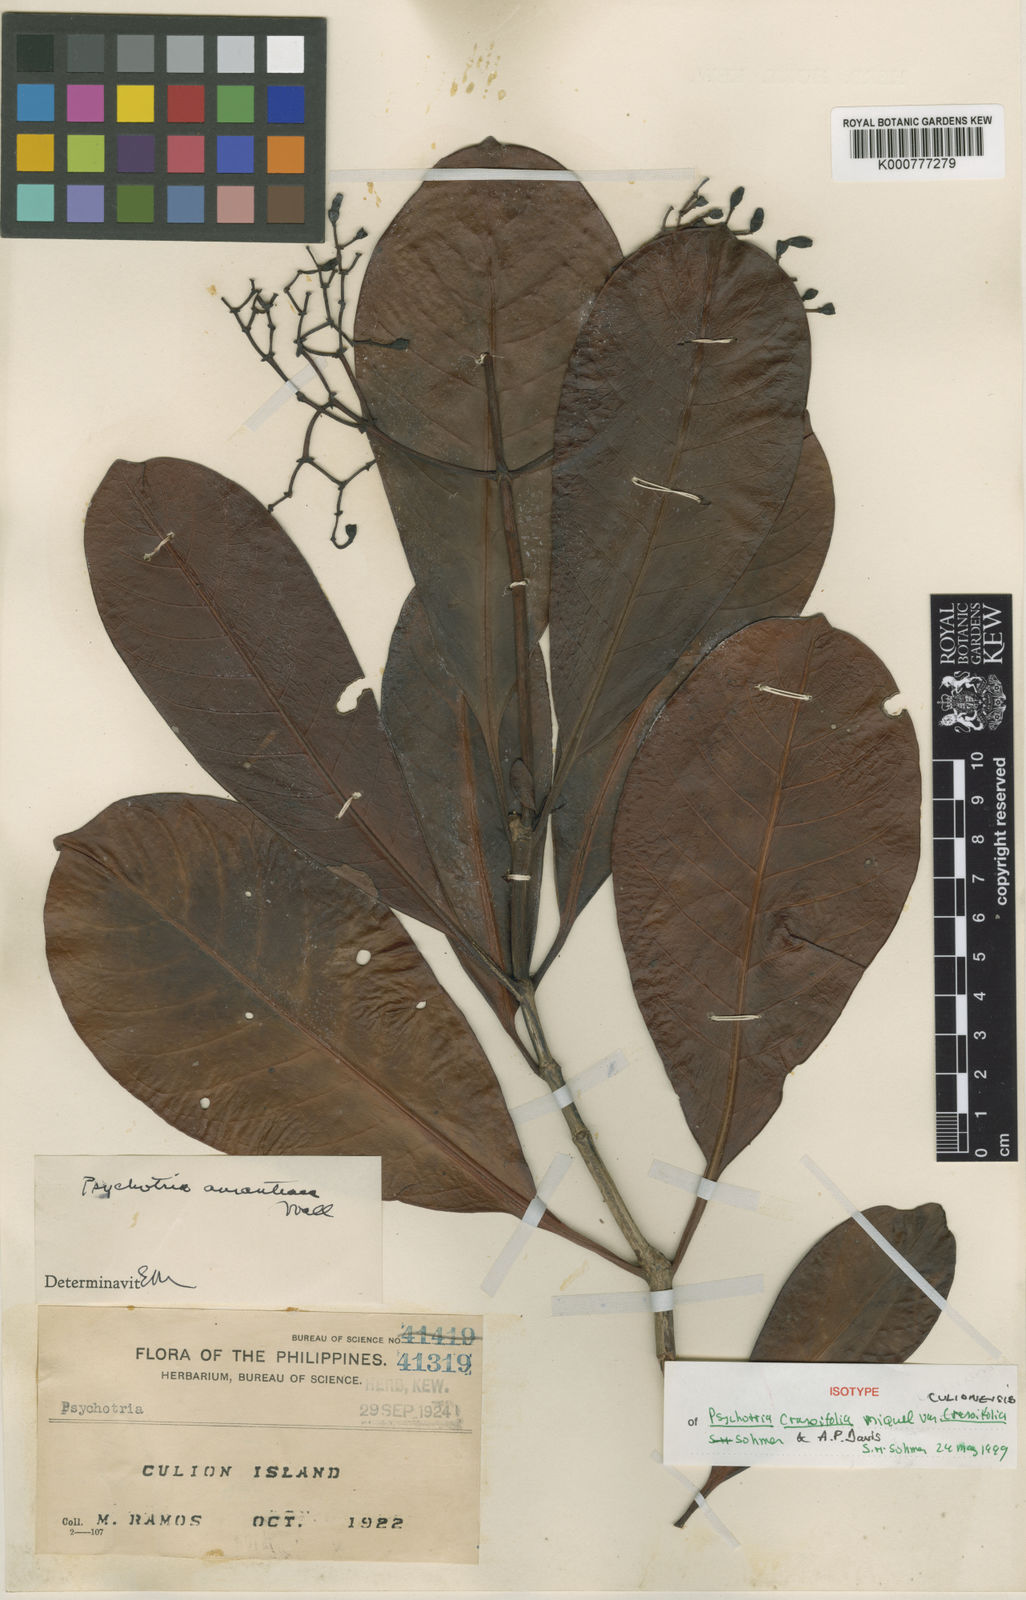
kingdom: Plantae
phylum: Tracheophyta
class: Magnoliopsida
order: Gentianales
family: Rubiaceae
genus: Psychotria
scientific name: Psychotria crassifolia
